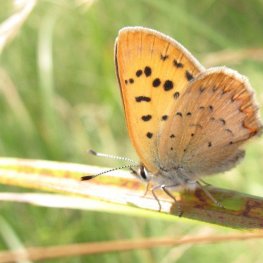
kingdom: Animalia
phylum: Arthropoda
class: Insecta
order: Lepidoptera
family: Lycaenidae
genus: Epidemia
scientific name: Epidemia dorcas
